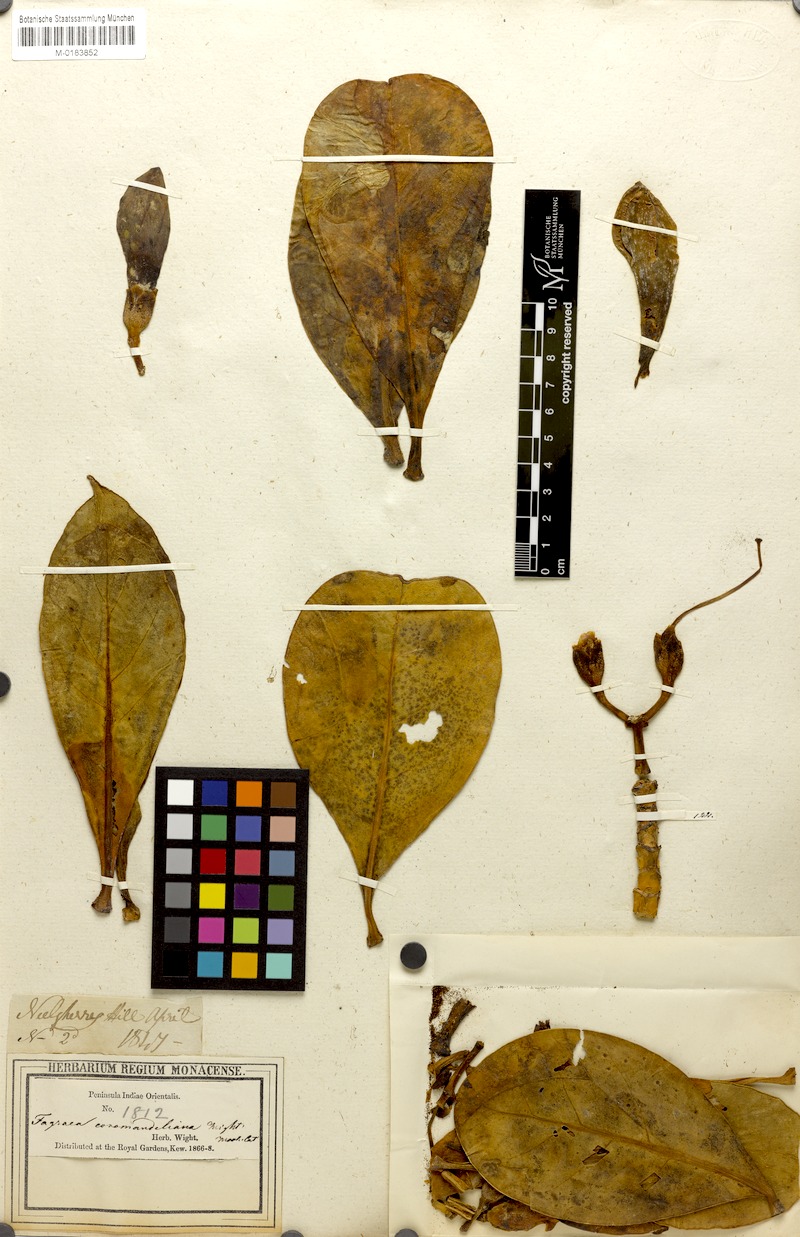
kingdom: Plantae
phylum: Tracheophyta
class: Magnoliopsida
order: Gentianales
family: Gentianaceae
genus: Fagraea
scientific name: Fagraea ceilanica
